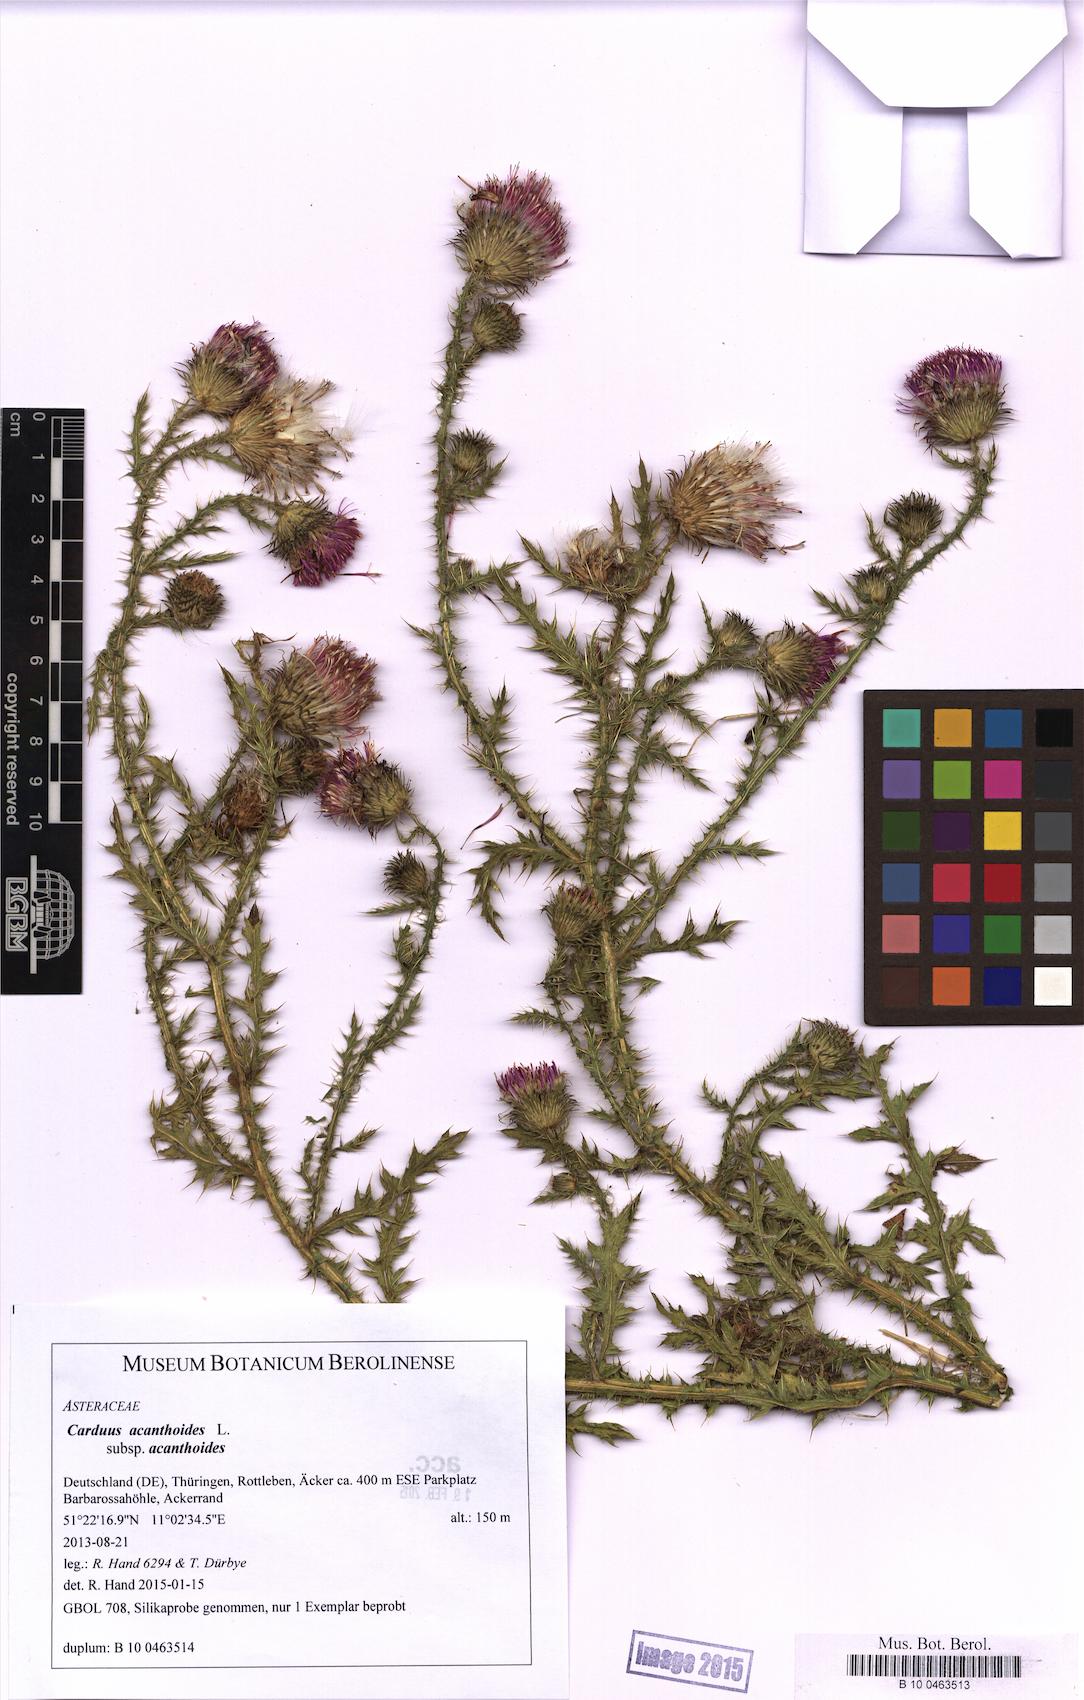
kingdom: Plantae
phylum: Tracheophyta
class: Magnoliopsida
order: Asterales
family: Asteraceae
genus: Carduus
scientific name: Carduus acanthoides
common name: Plumeless thistle
